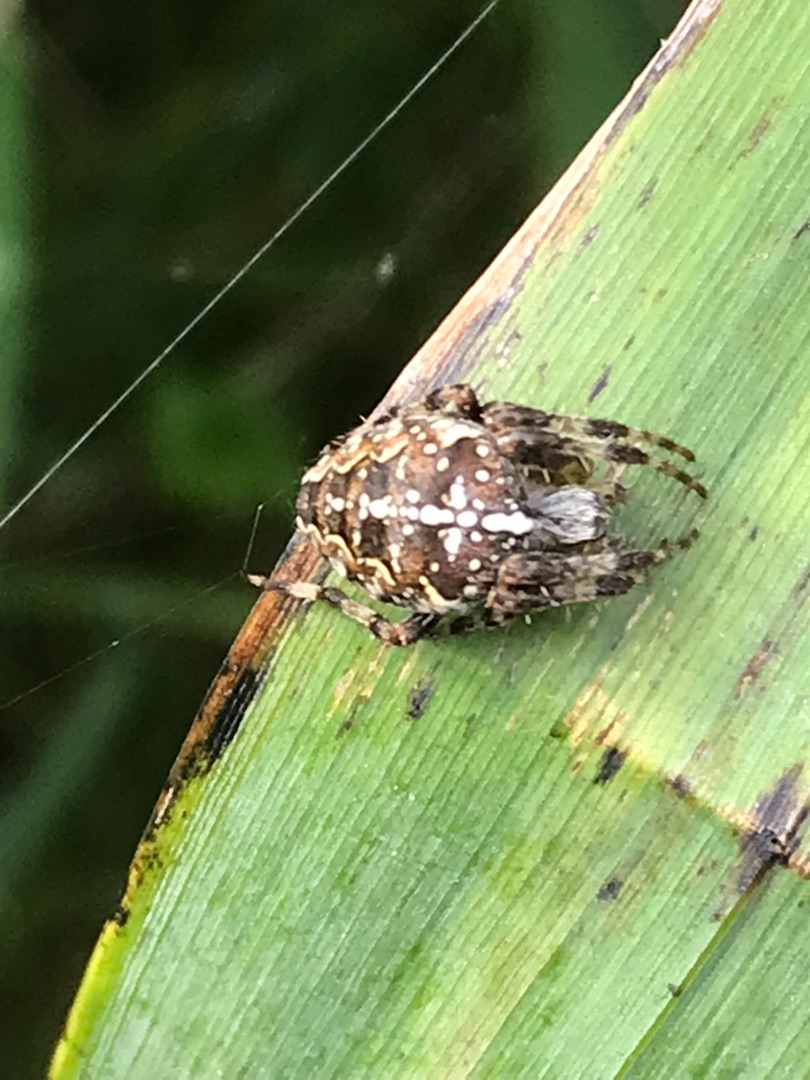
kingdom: Animalia
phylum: Arthropoda
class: Arachnida
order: Araneae
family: Araneidae
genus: Araneus
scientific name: Araneus diadematus
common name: Korsedderkop
